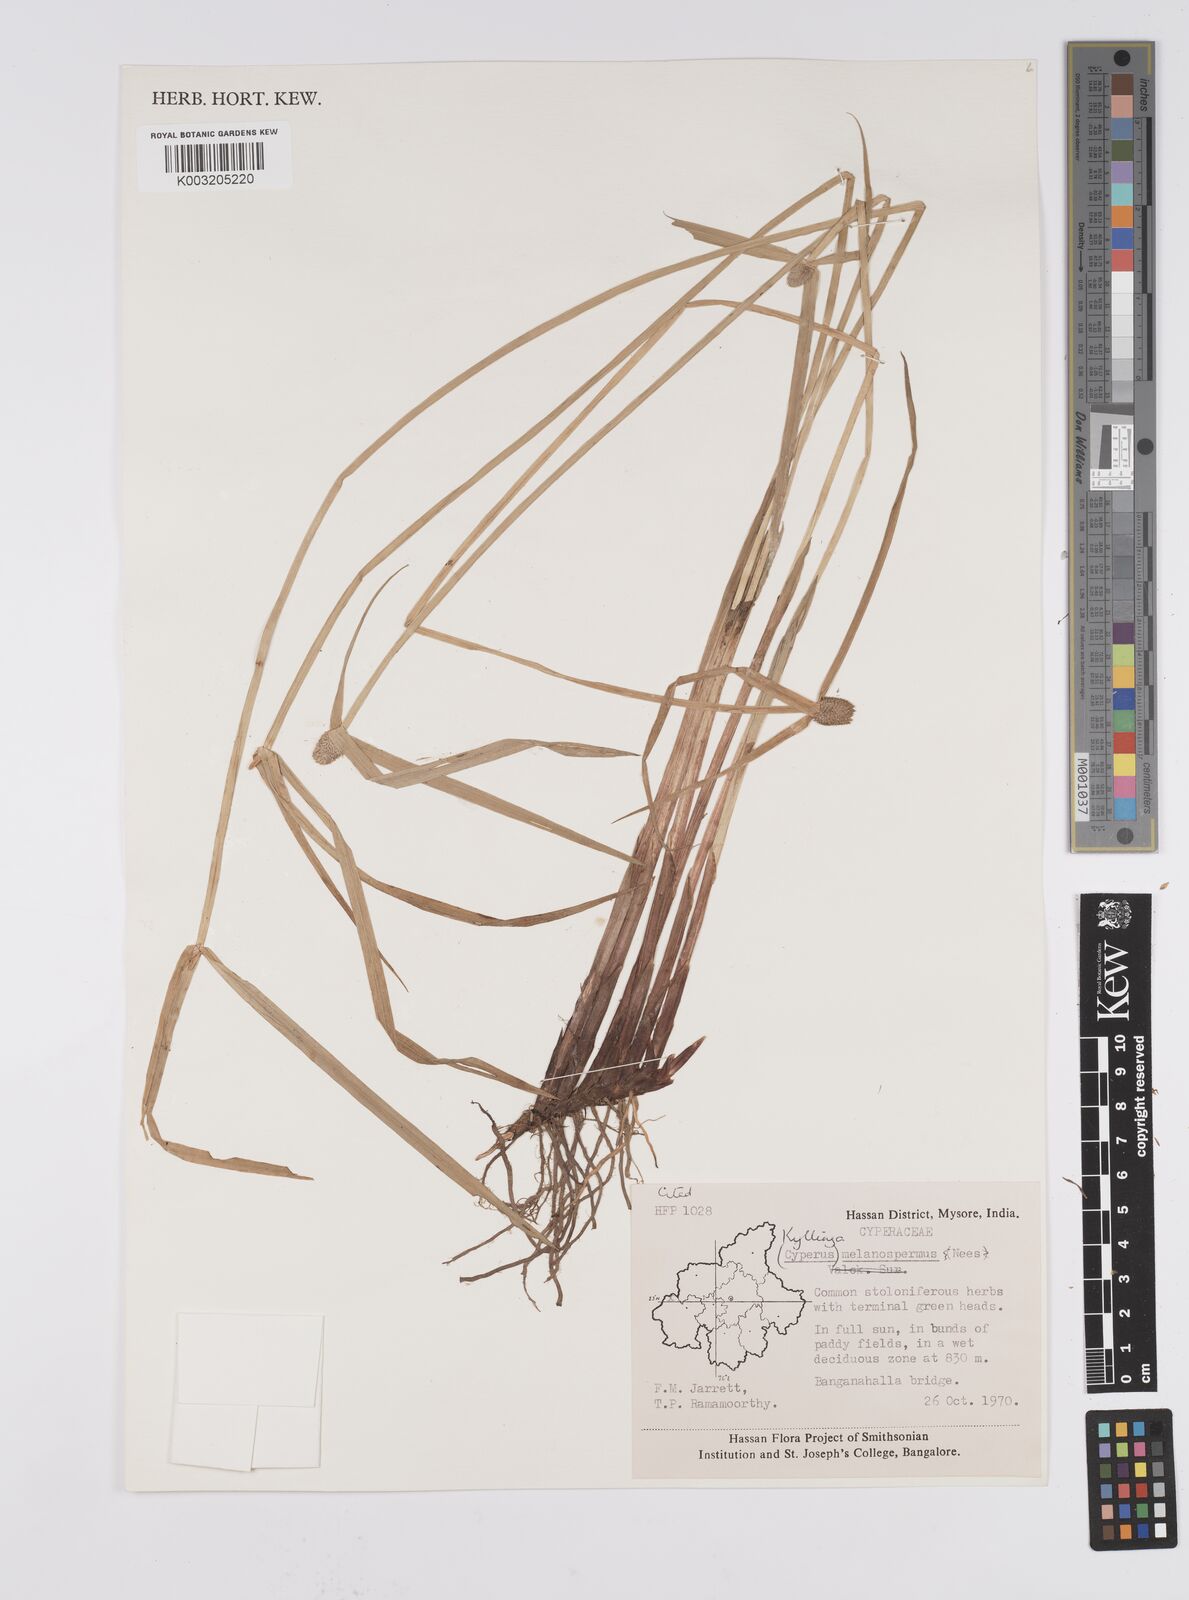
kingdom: Plantae
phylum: Tracheophyta
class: Liliopsida
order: Poales
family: Cyperaceae
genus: Cyperus
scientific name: Cyperus melanospermus
